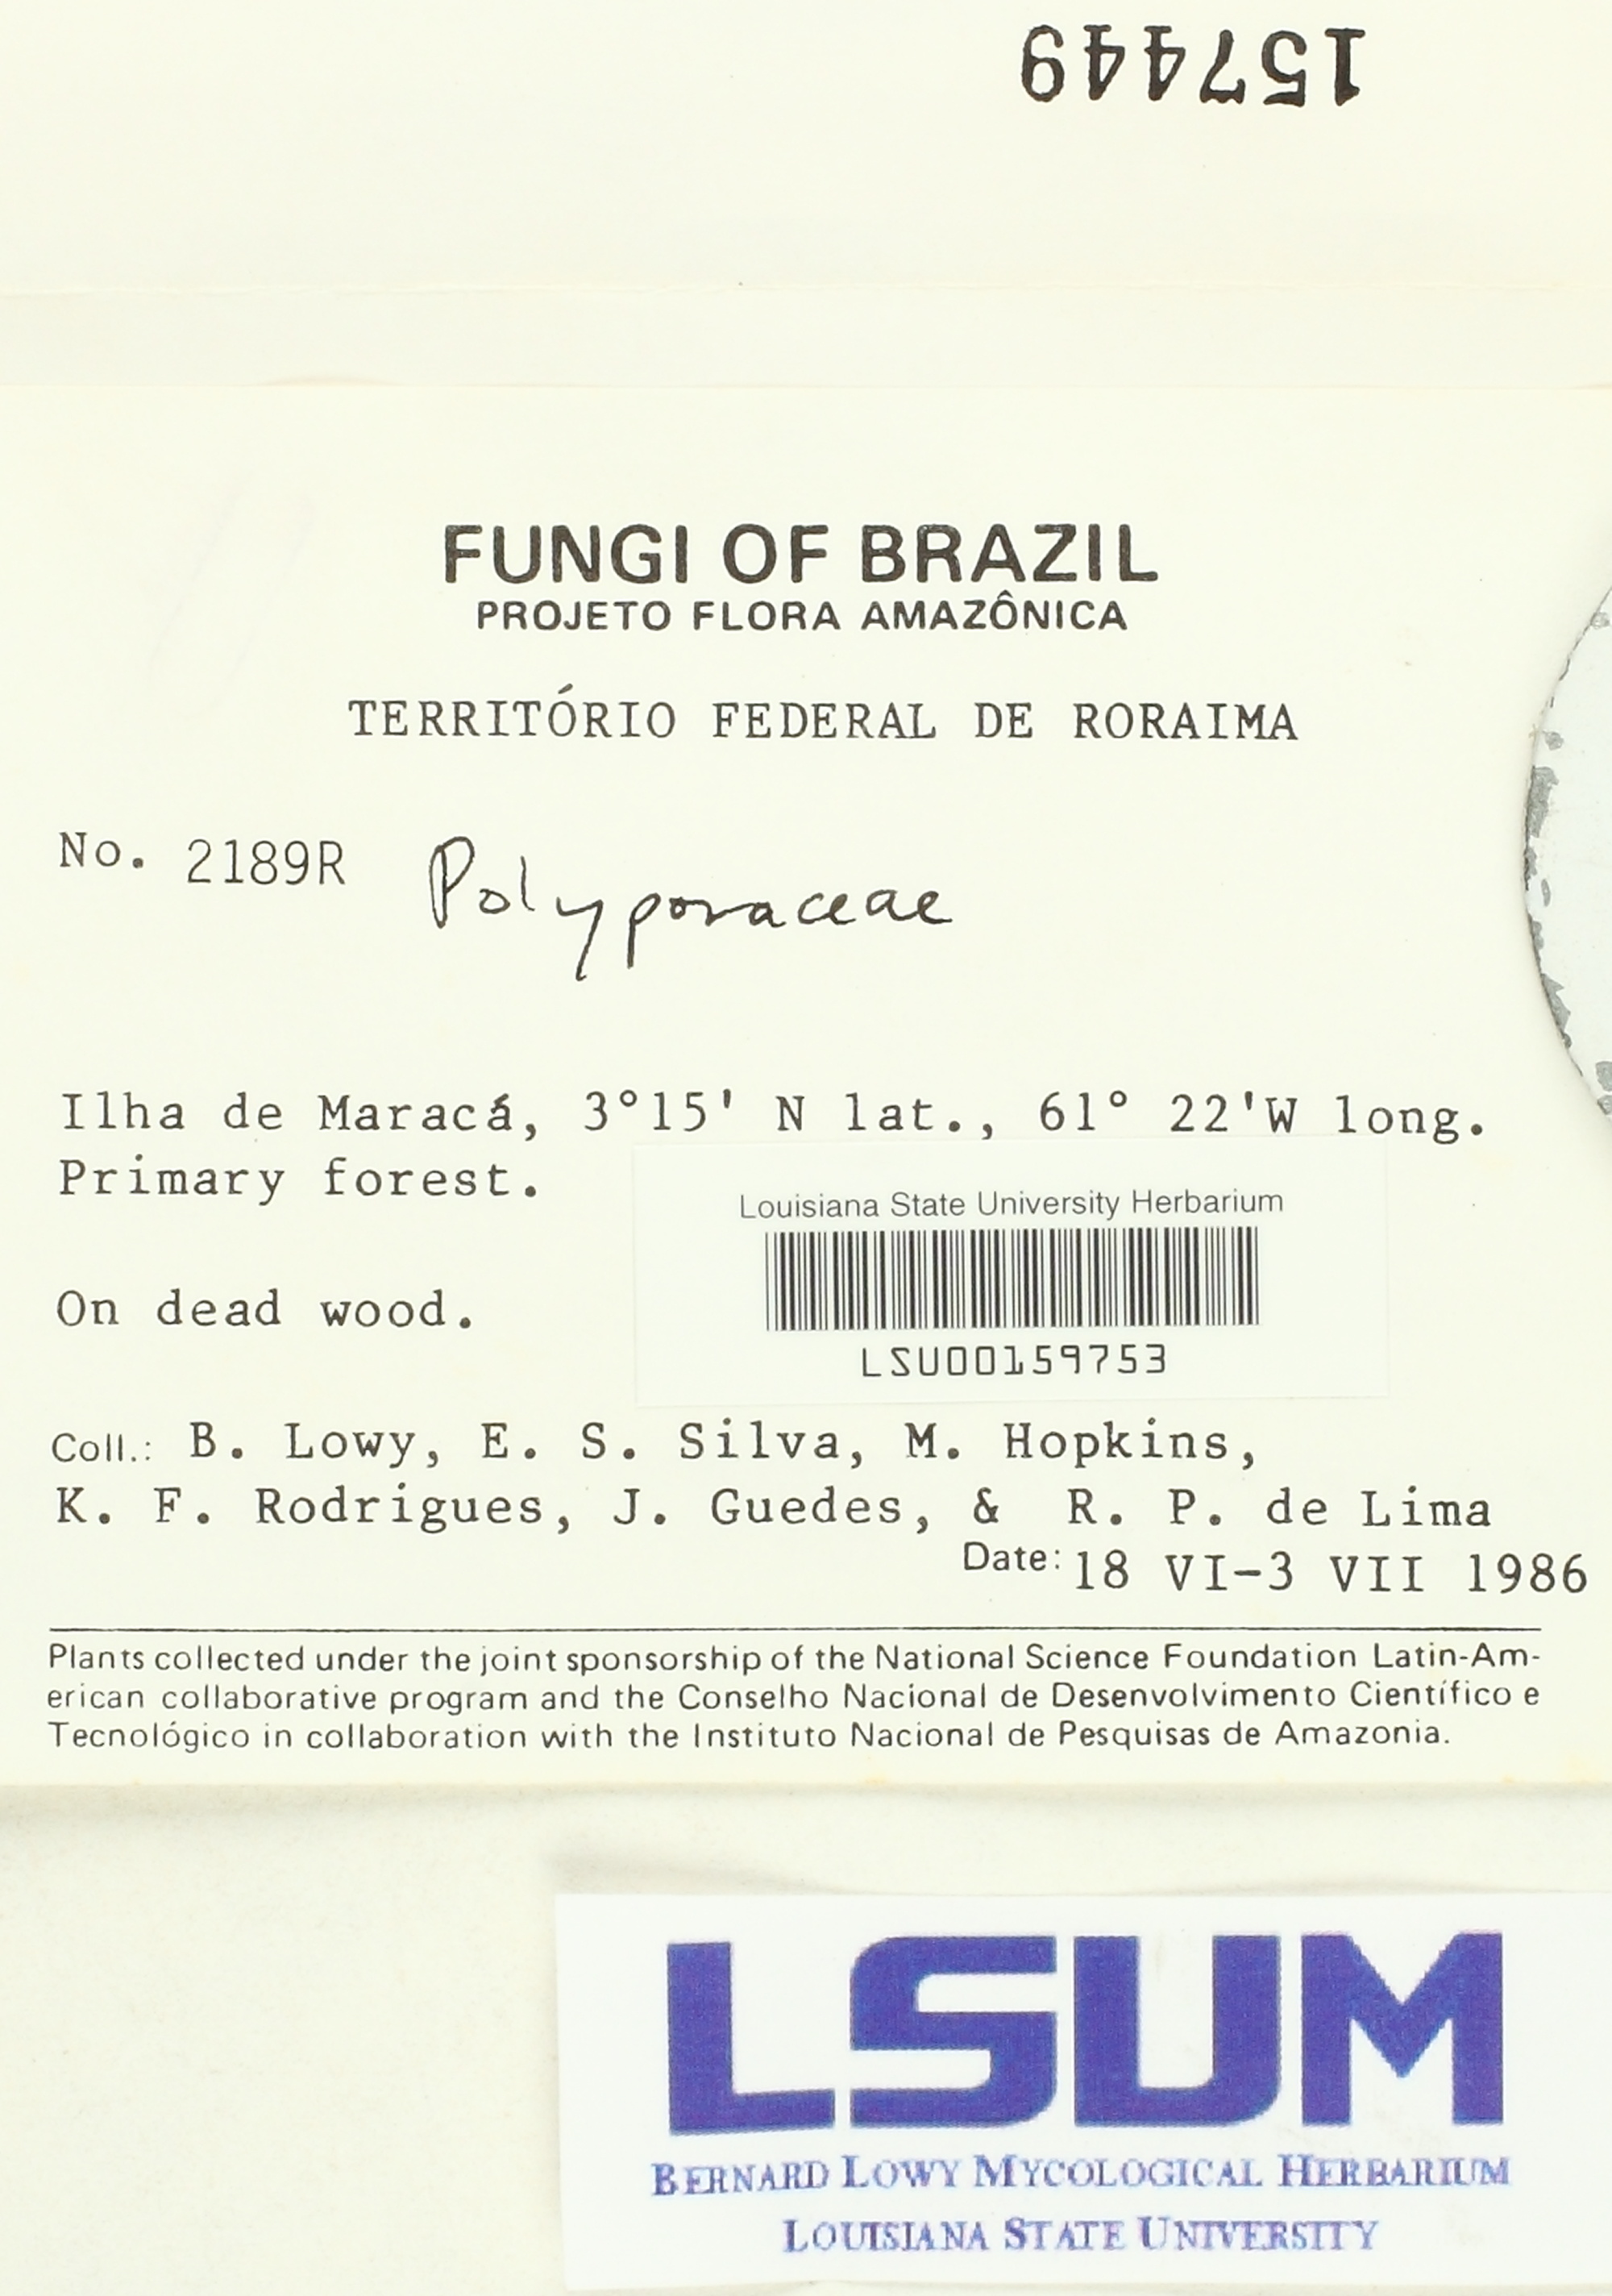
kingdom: Fungi
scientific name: Fungi
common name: Fungi
